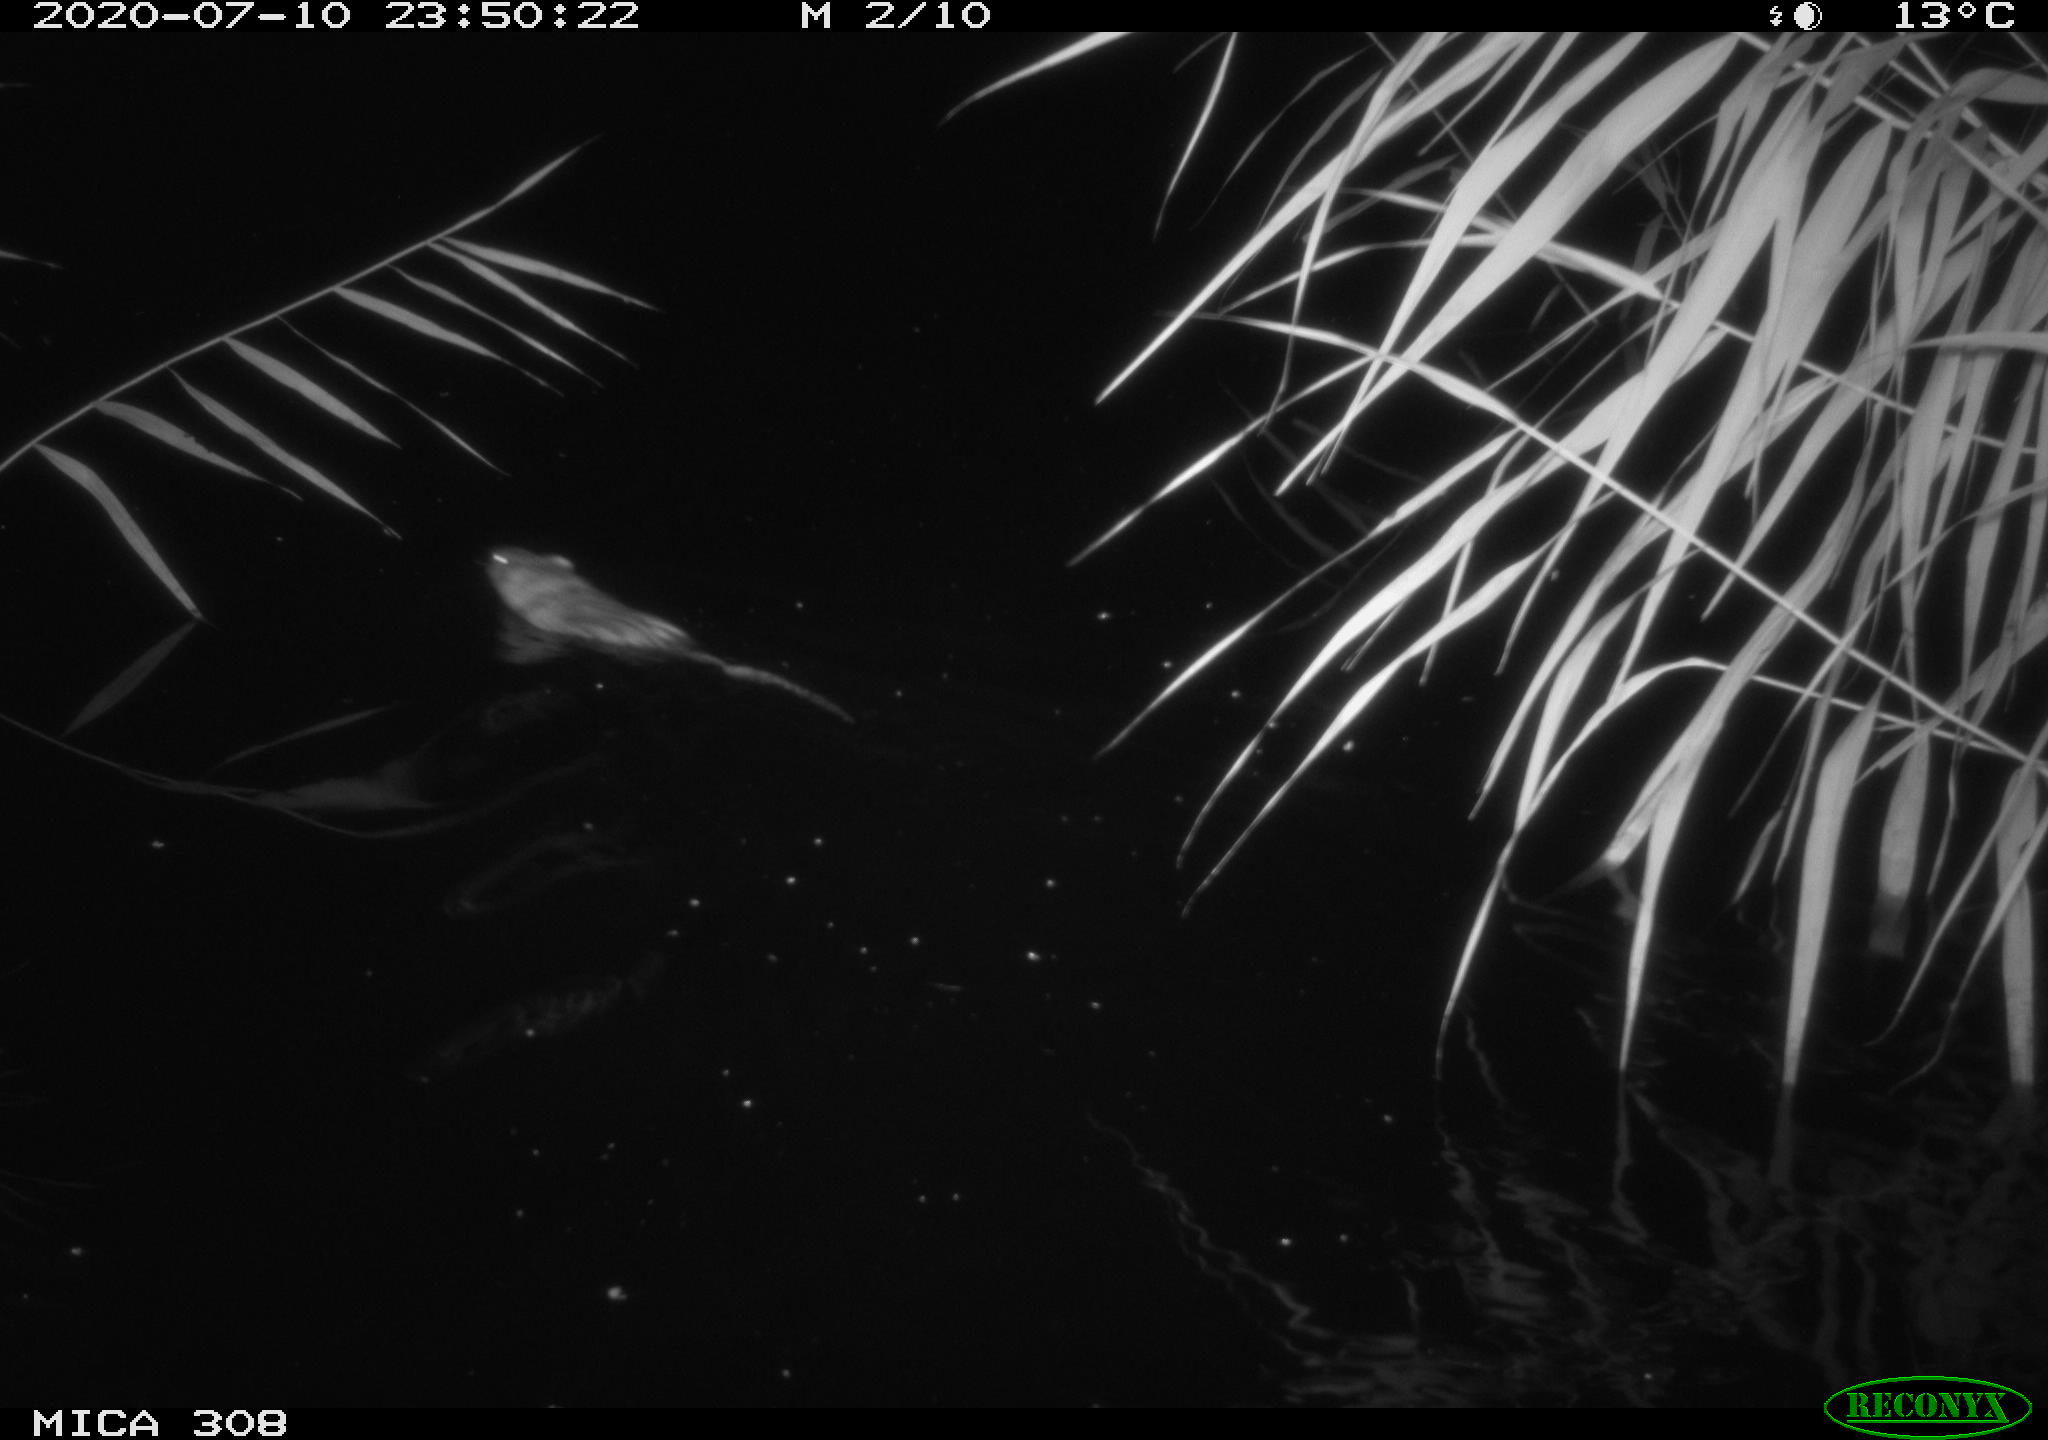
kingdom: Animalia
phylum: Chordata
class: Mammalia
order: Rodentia
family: Muridae
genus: Rattus
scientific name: Rattus norvegicus
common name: Brown rat
